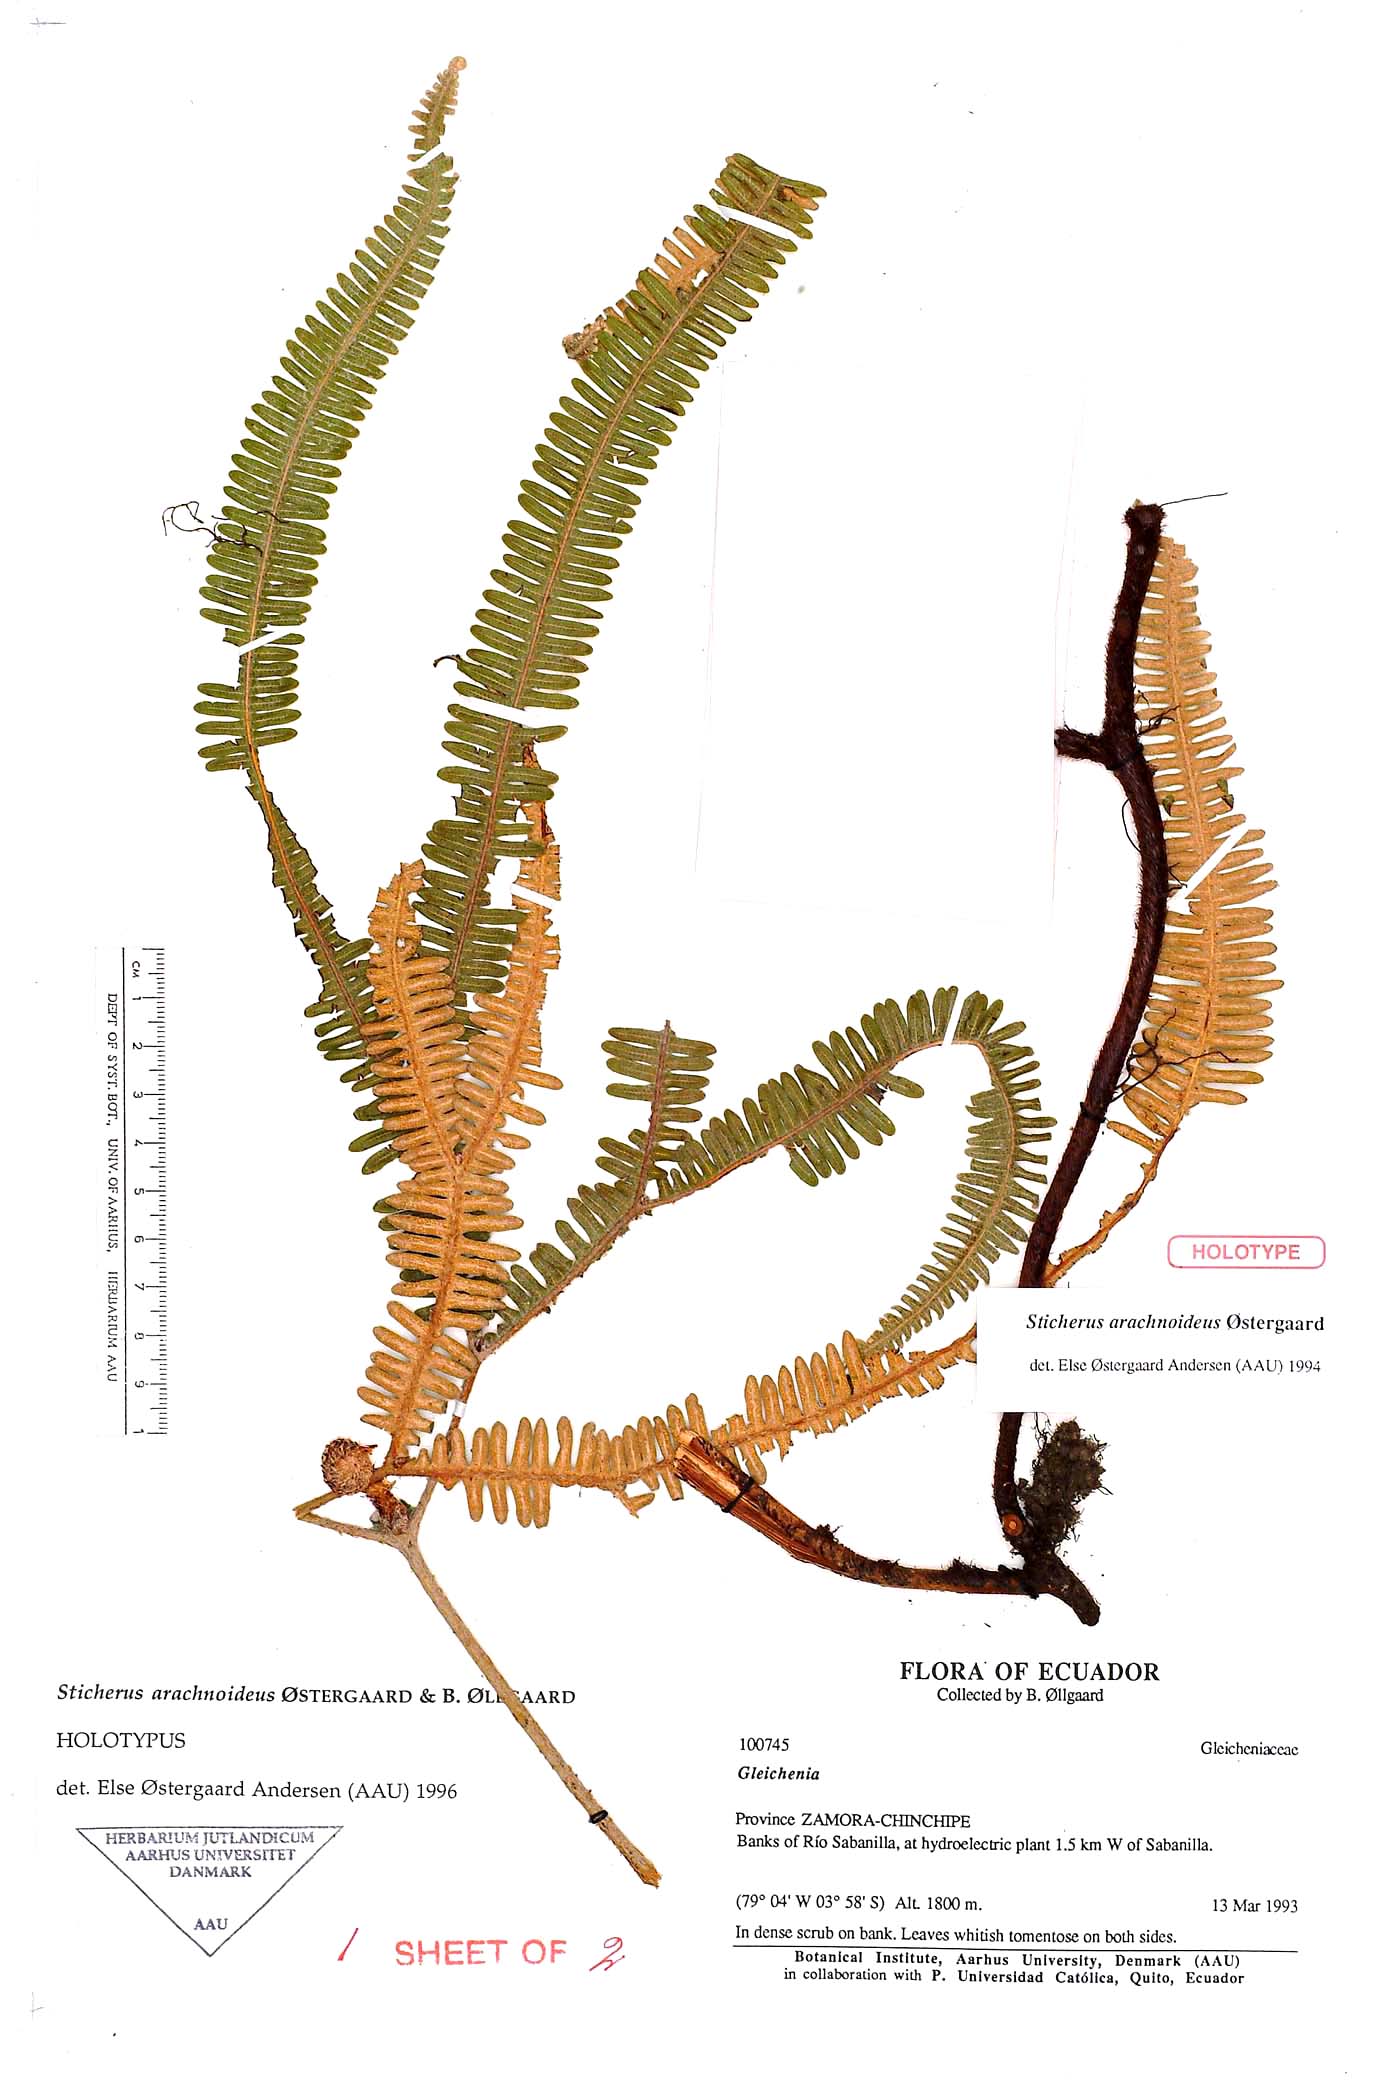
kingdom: Plantae
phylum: Tracheophyta
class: Polypodiopsida
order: Gleicheniales
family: Gleicheniaceae
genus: Sticherus
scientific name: Sticherus arachnoideus
